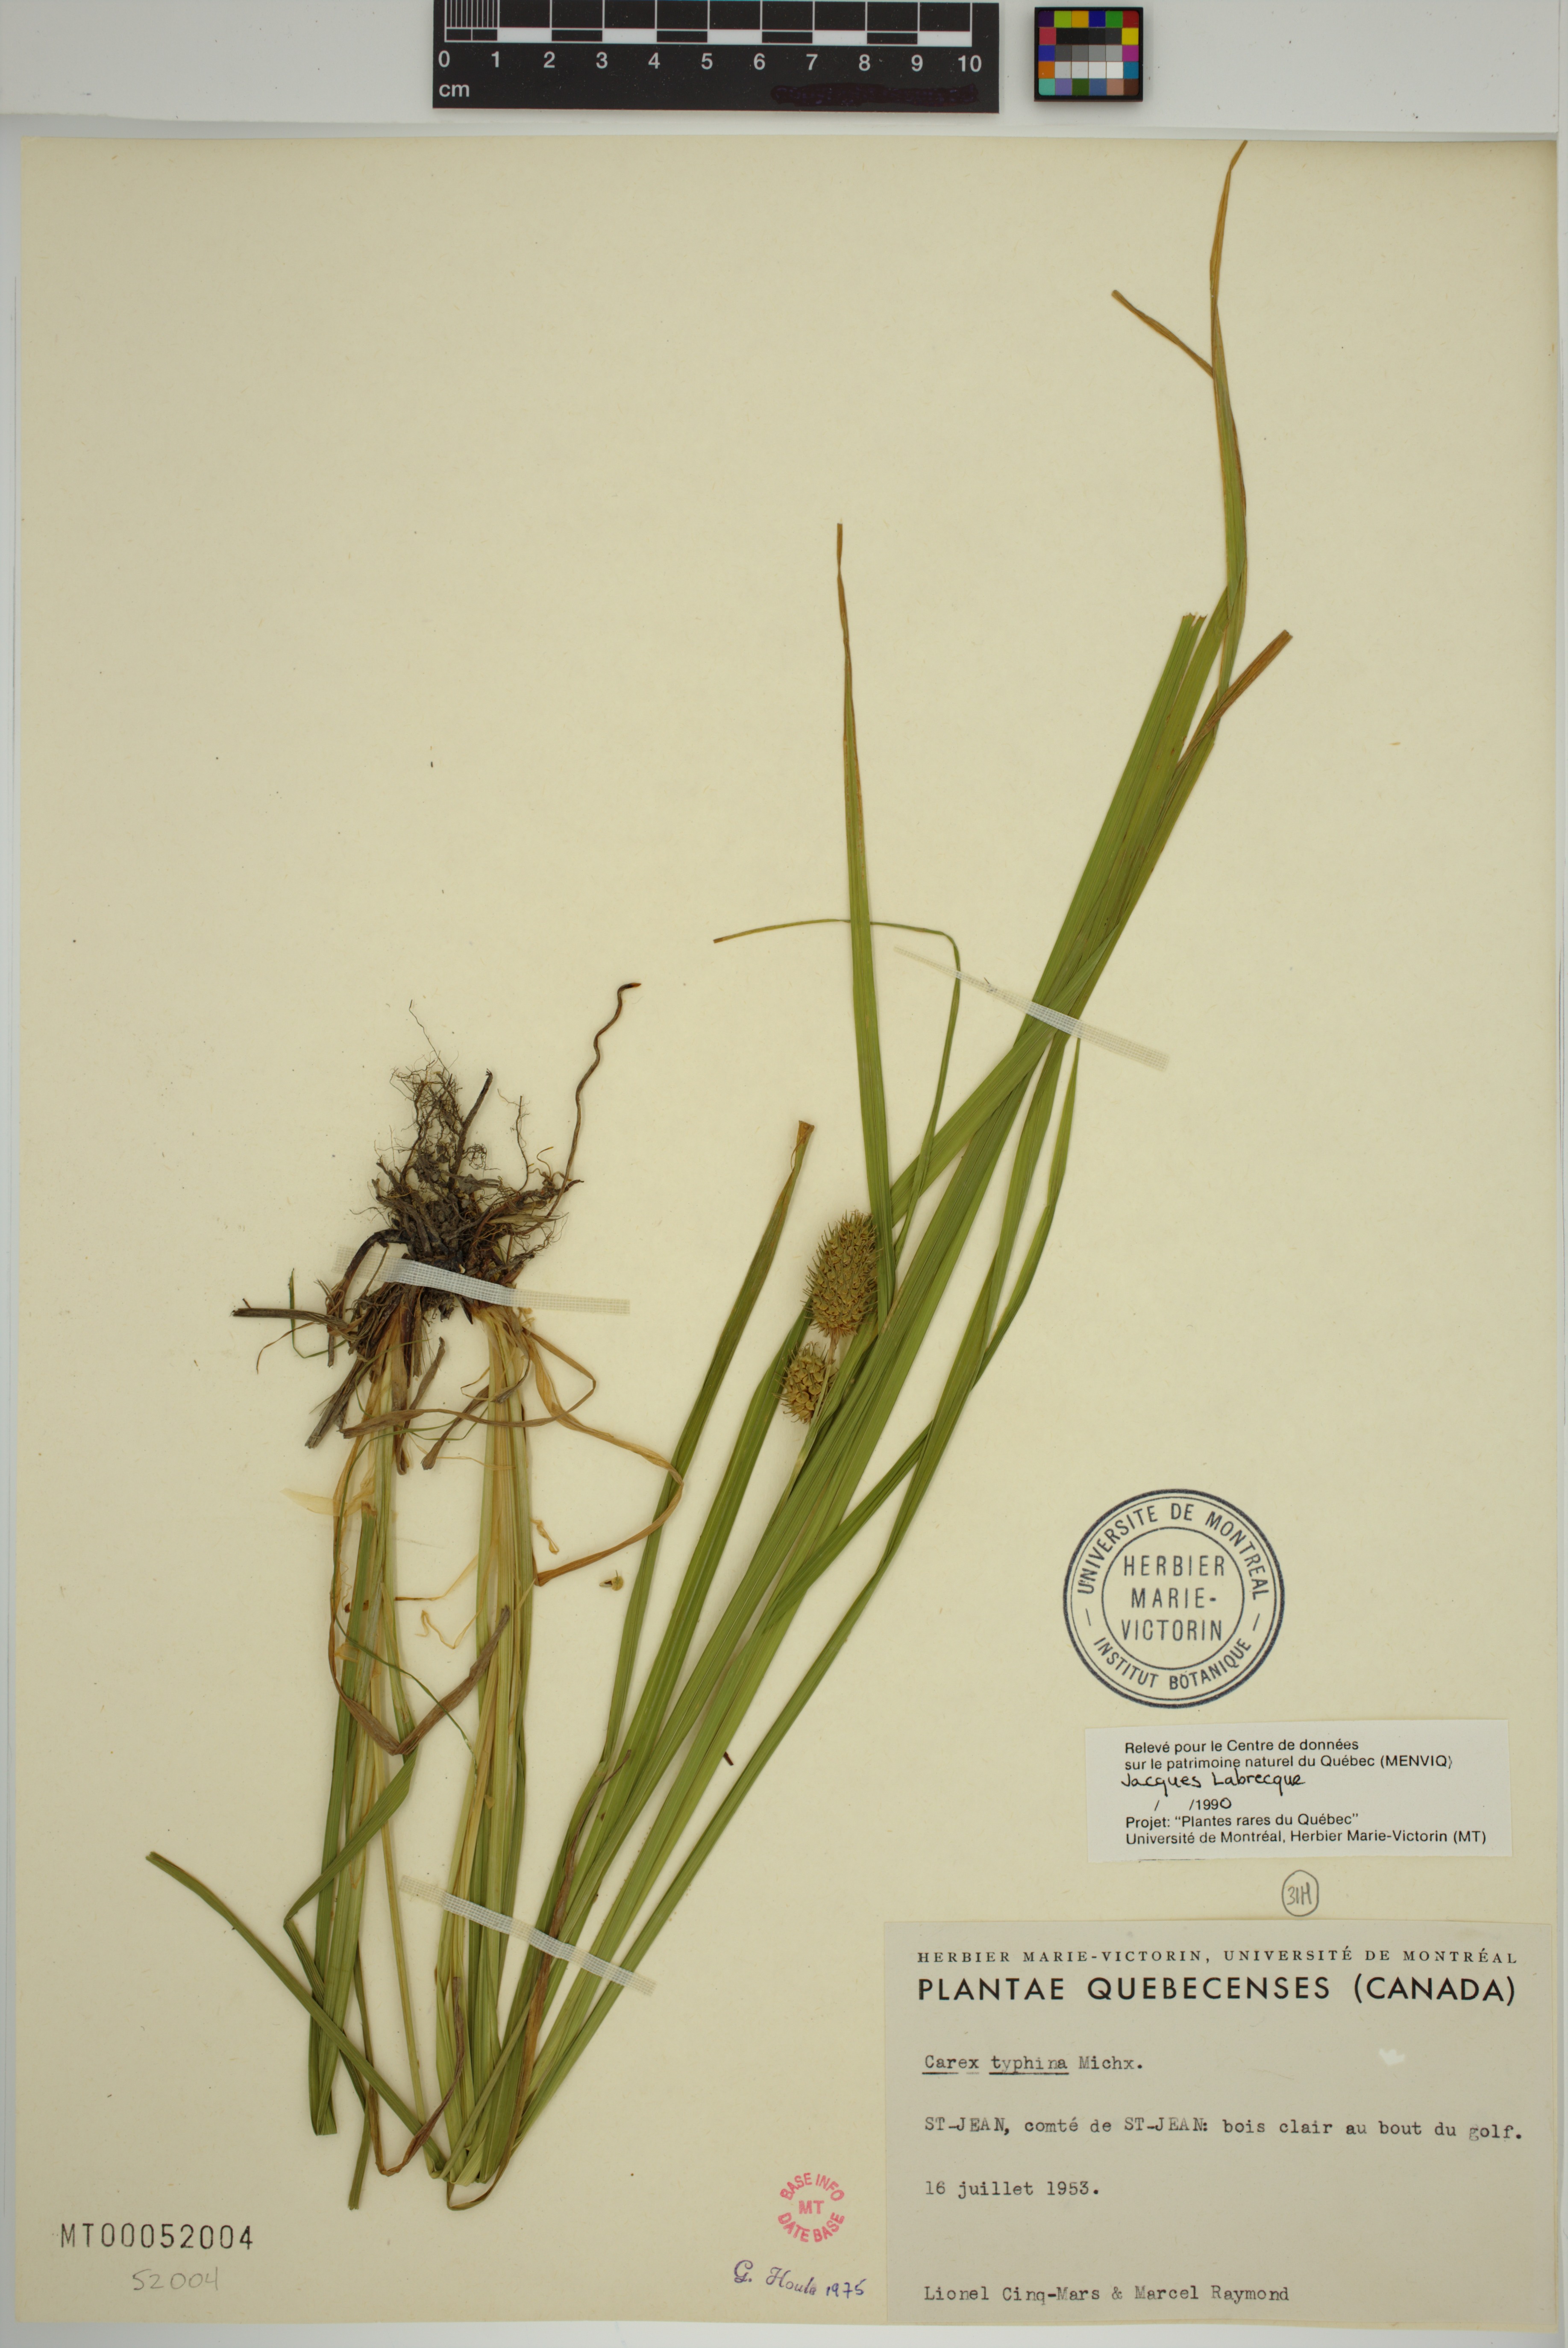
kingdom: Plantae
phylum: Tracheophyta
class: Liliopsida
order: Poales
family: Cyperaceae
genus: Carex
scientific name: Carex typhina
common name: Cattail sedge
